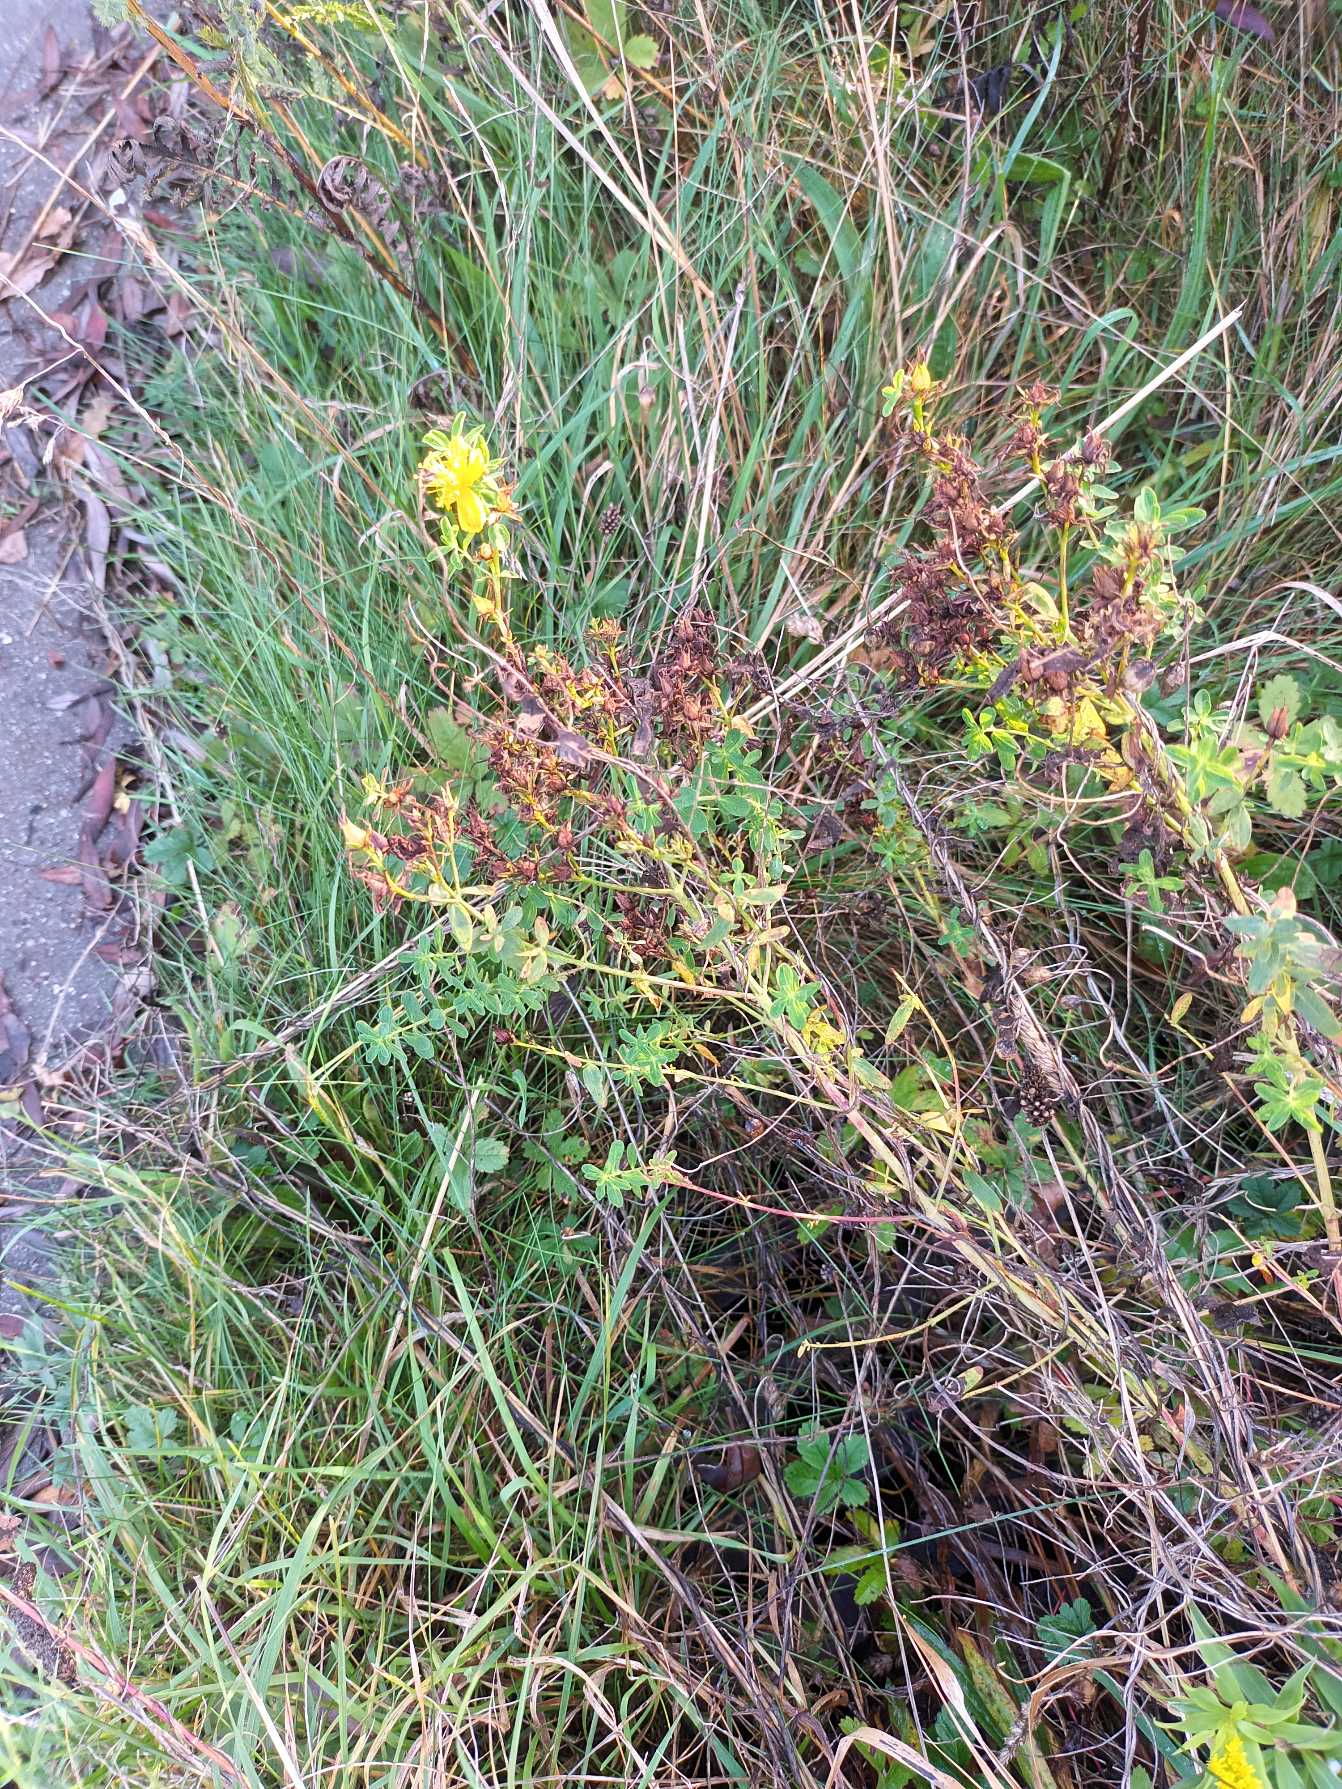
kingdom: Plantae
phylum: Tracheophyta
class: Magnoliopsida
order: Malpighiales
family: Hypericaceae
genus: Hypericum
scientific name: Hypericum perforatum
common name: Prikbladet perikon
